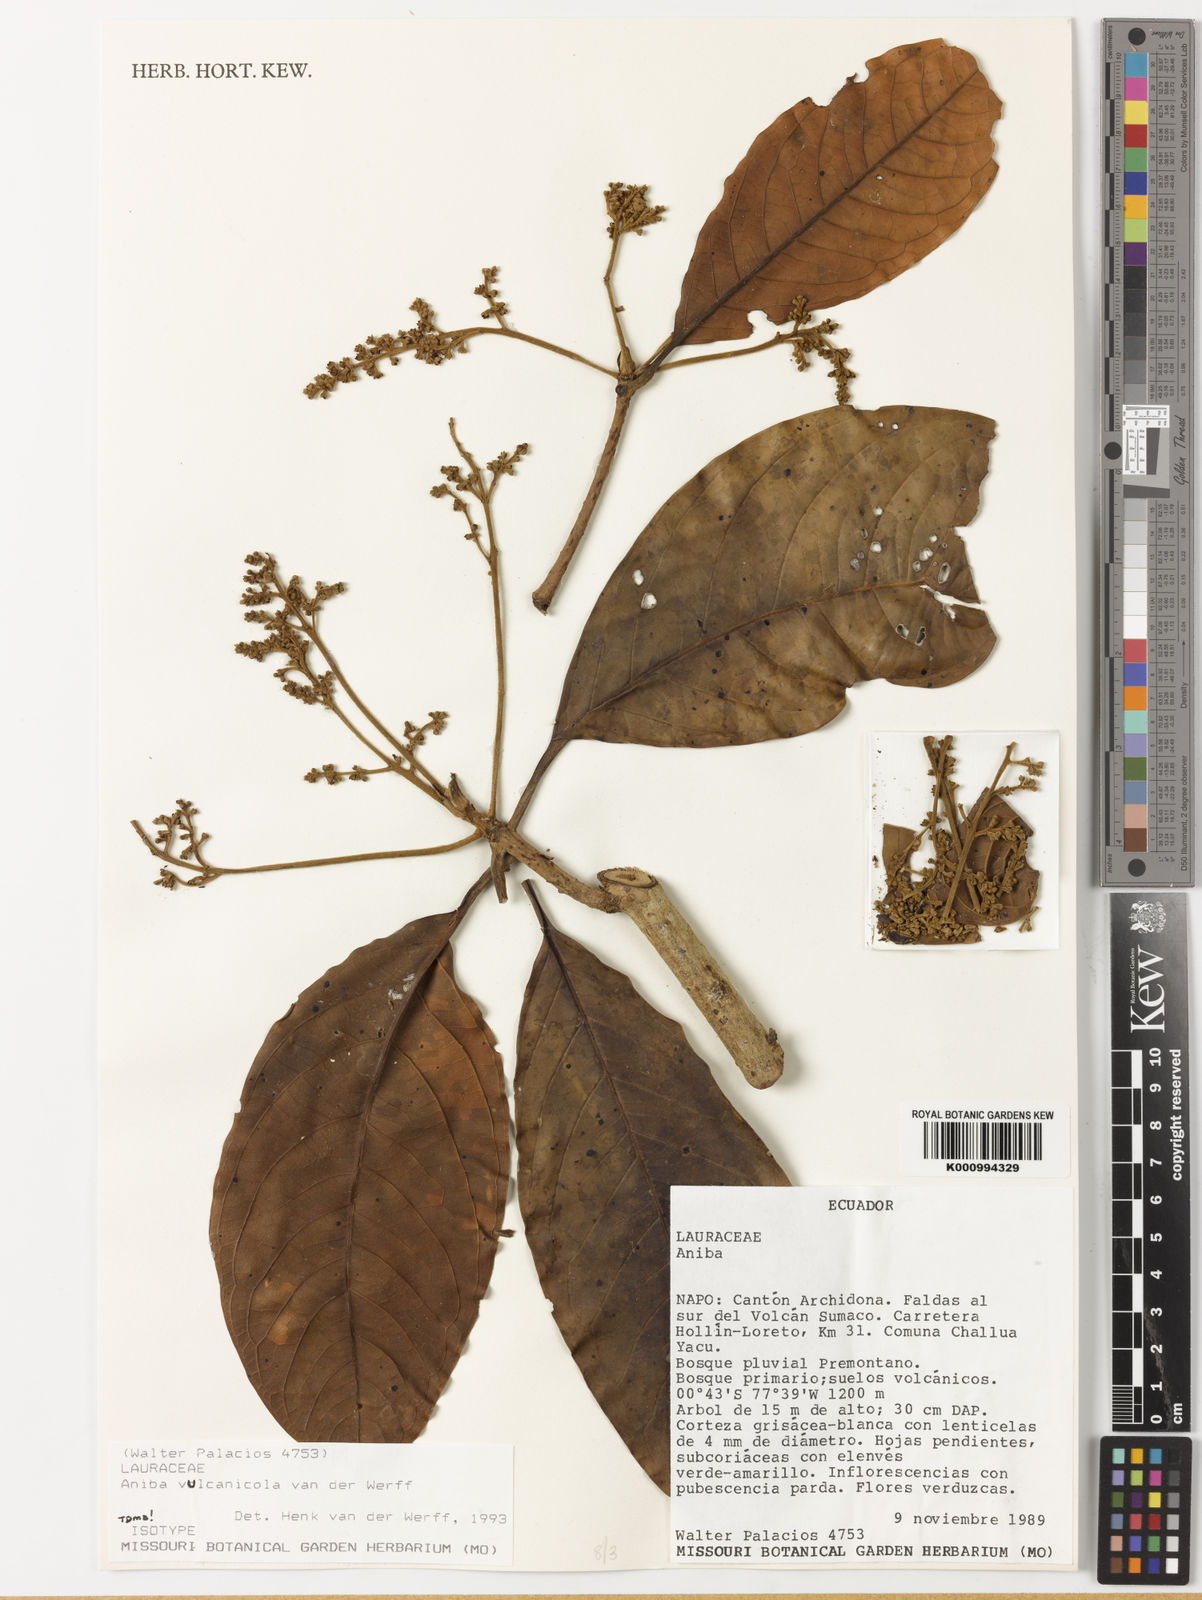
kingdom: Plantae
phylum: Tracheophyta
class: Magnoliopsida
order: Laurales
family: Lauraceae
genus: Aniba
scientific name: Aniba vulcanicola
